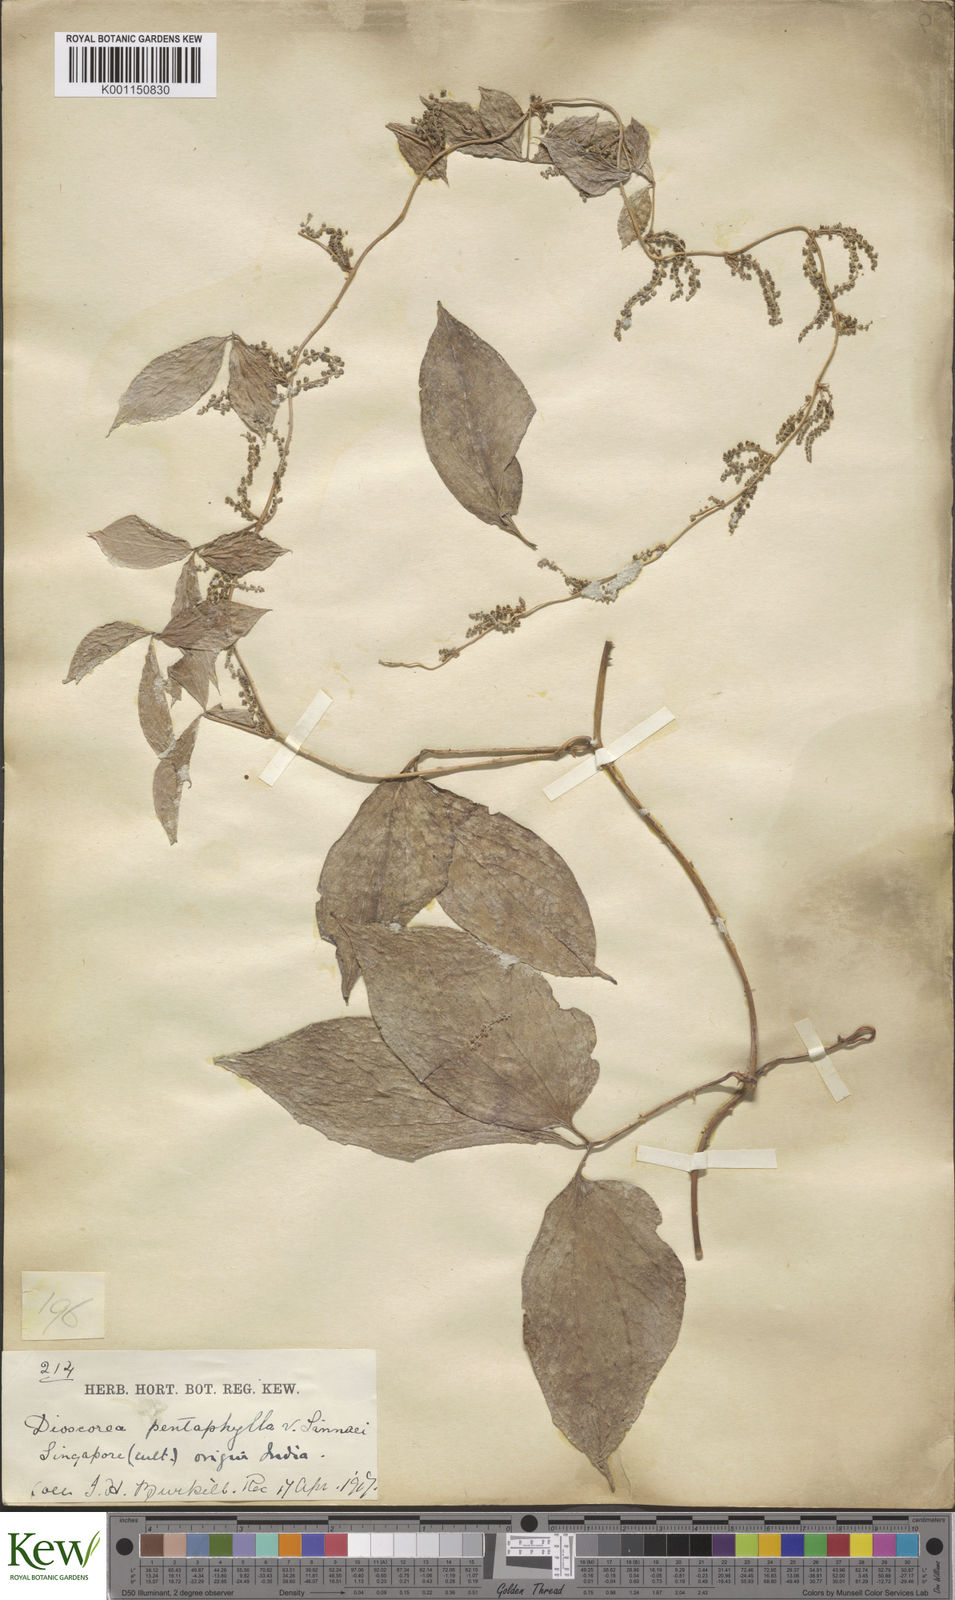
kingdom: Plantae
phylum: Tracheophyta
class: Liliopsida
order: Dioscoreales
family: Dioscoreaceae
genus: Dioscorea
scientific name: Dioscorea pentaphylla
